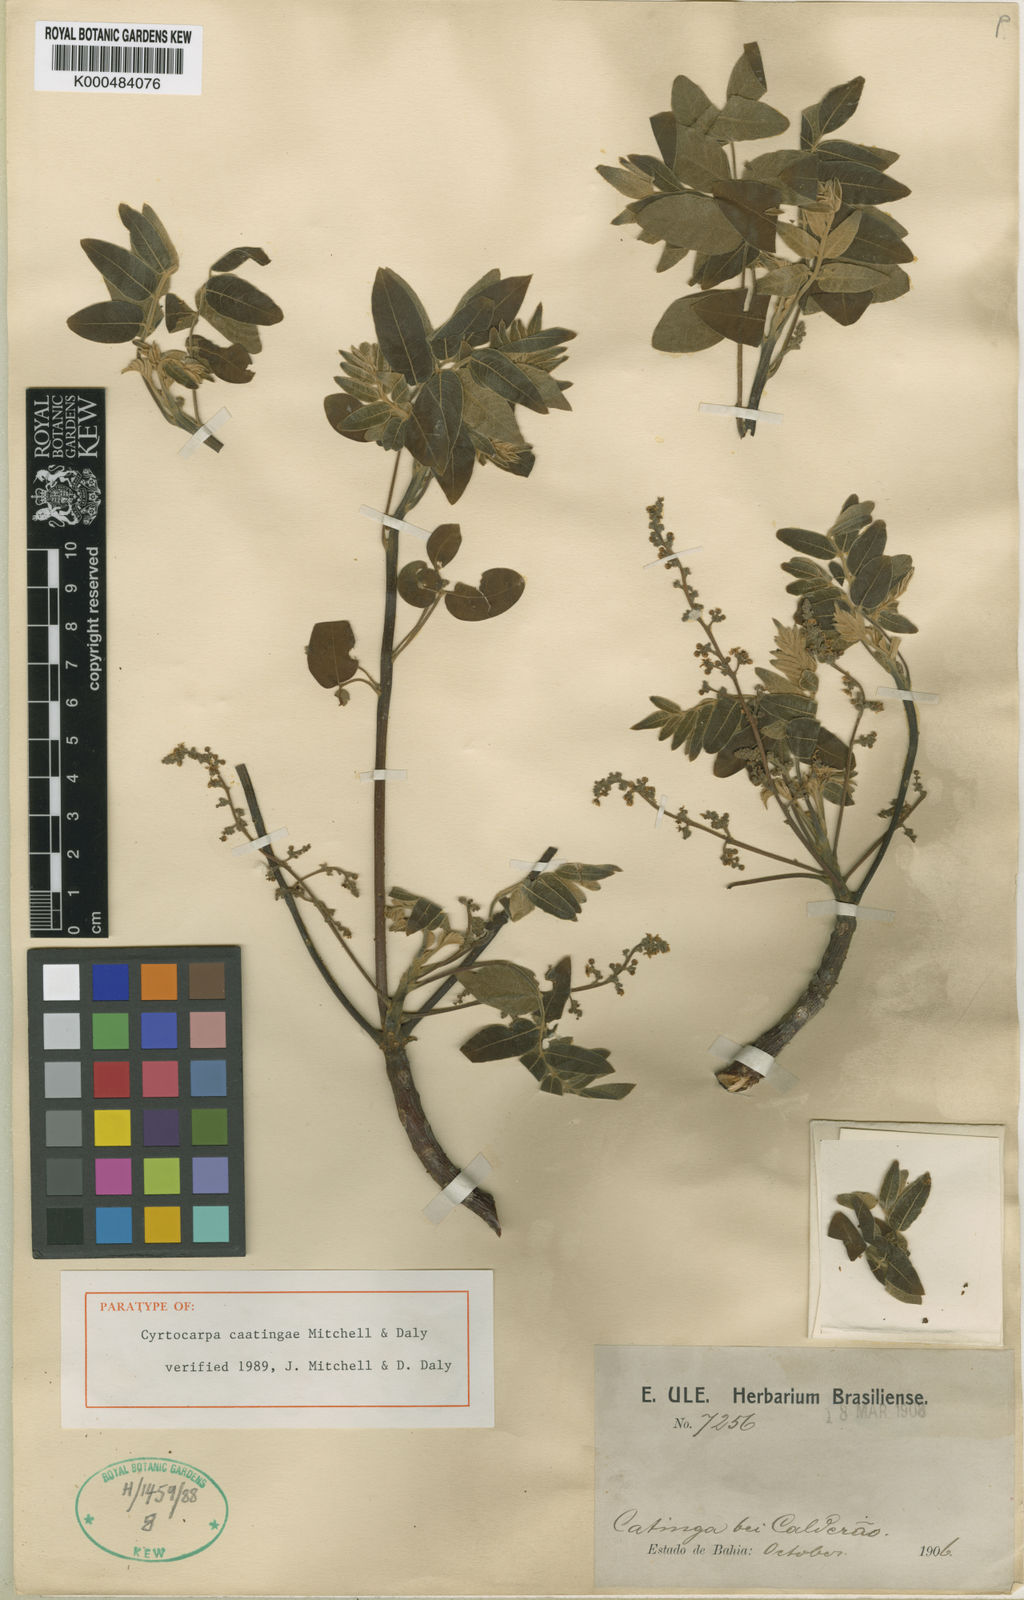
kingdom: Plantae
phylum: Tracheophyta
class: Magnoliopsida
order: Sapindales
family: Anacardiaceae
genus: Cyrtocarpa
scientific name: Cyrtocarpa caatingae
